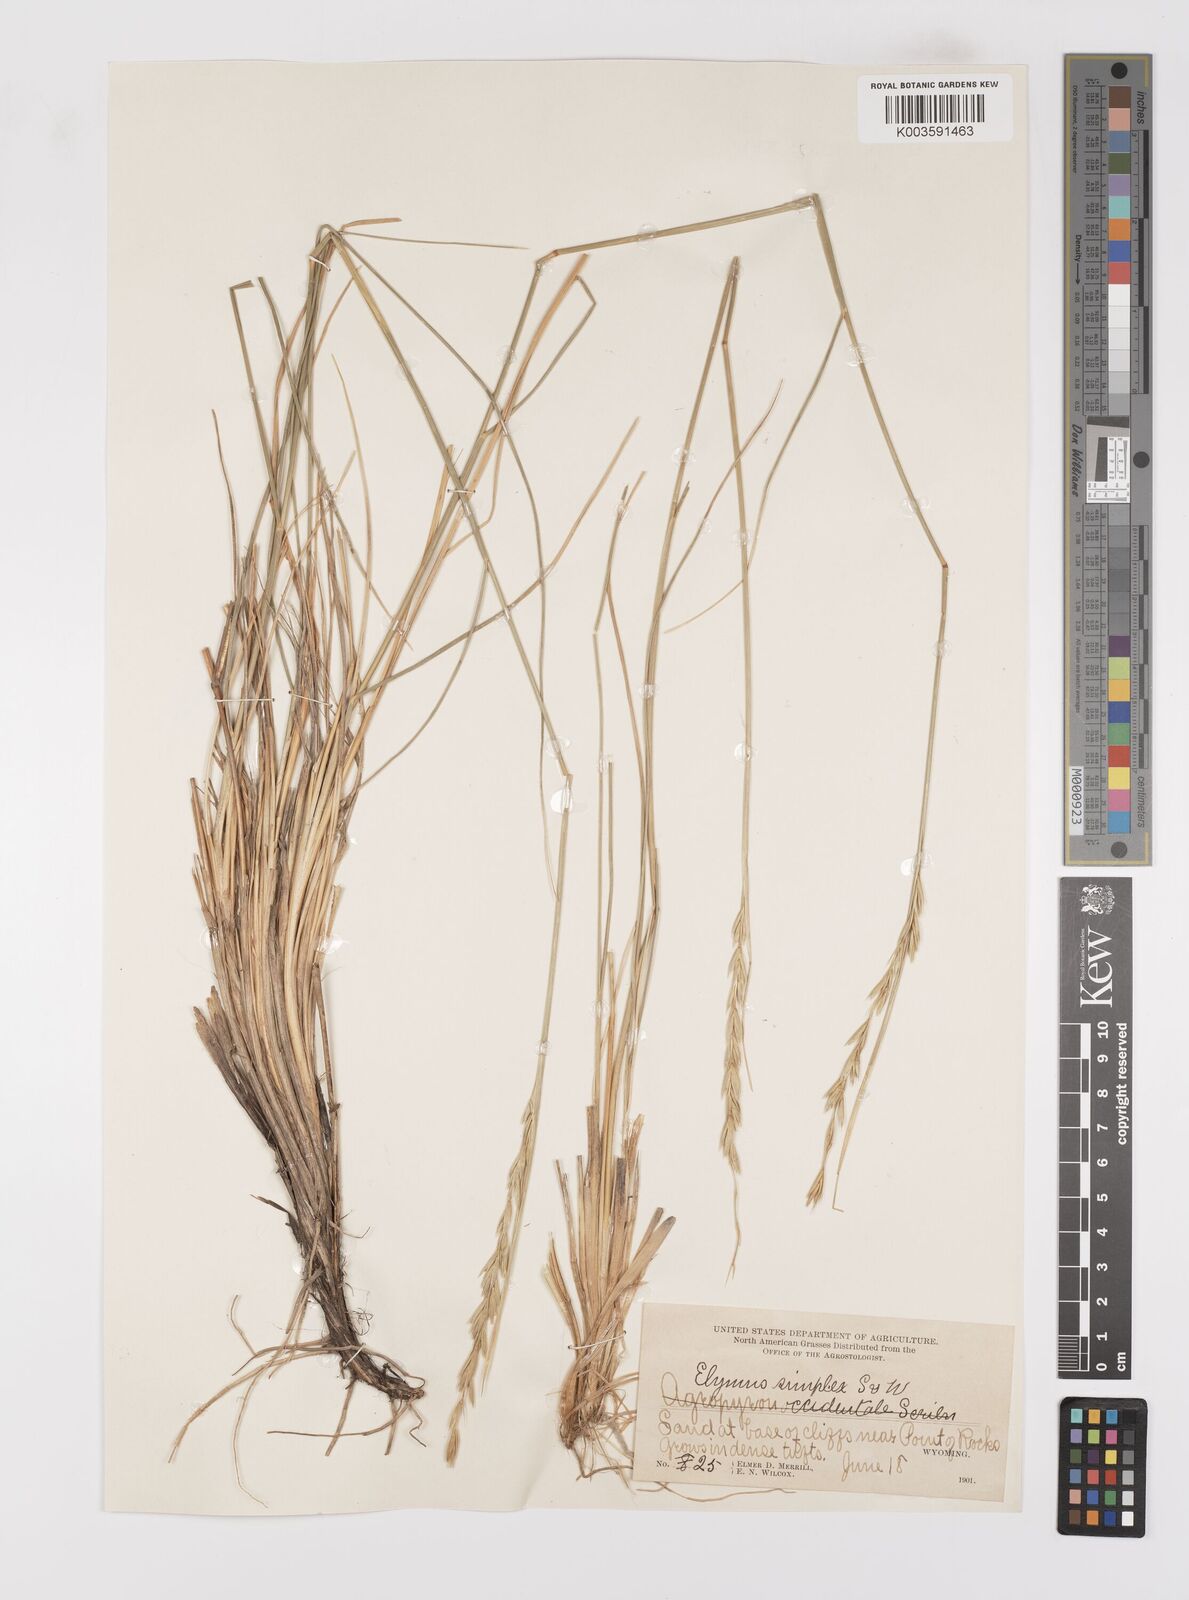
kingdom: Plantae
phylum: Tracheophyta
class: Liliopsida
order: Poales
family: Poaceae
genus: Leymus
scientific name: Leymus triticoides
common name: Beardless wild rye
